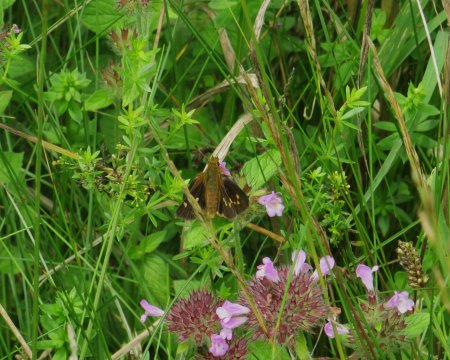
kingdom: Animalia
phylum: Arthropoda
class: Insecta
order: Lepidoptera
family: Hesperiidae
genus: Poanes
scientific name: Poanes massasoit
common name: Mulberry Wing
